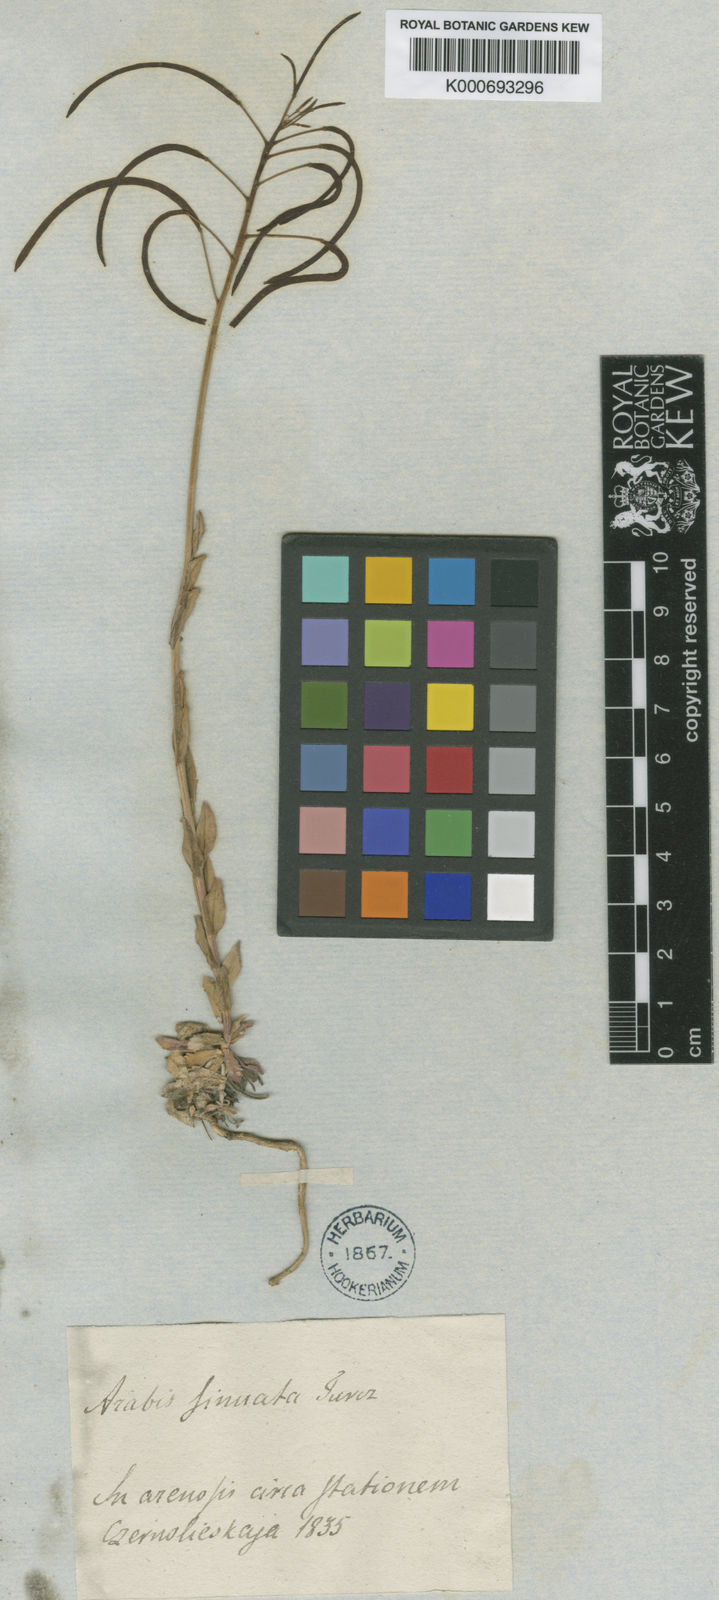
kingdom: Plantae
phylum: Tracheophyta
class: Magnoliopsida
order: Brassicales
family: Brassicaceae
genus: Braya
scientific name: Braya humilis
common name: Alpine northern rockcress
